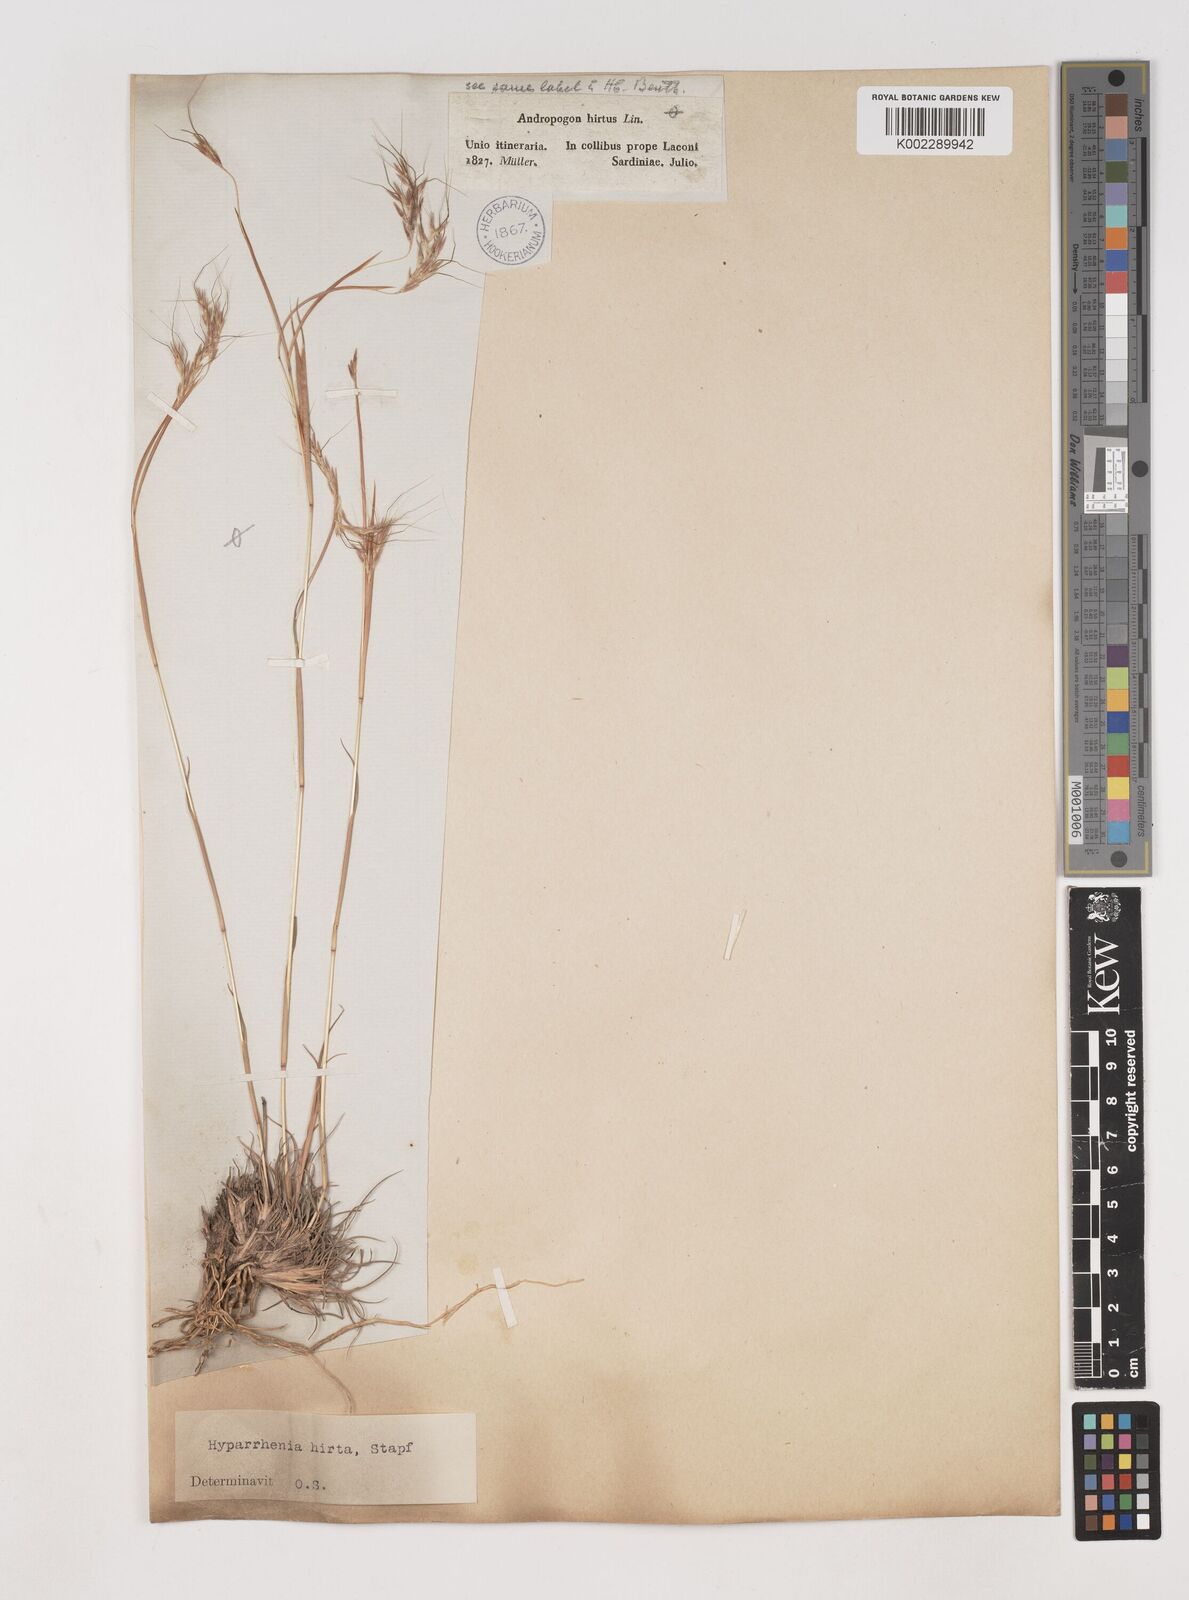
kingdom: Plantae
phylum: Tracheophyta
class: Liliopsida
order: Poales
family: Poaceae
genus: Hyparrhenia
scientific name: Hyparrhenia hirta
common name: Thatching grass
